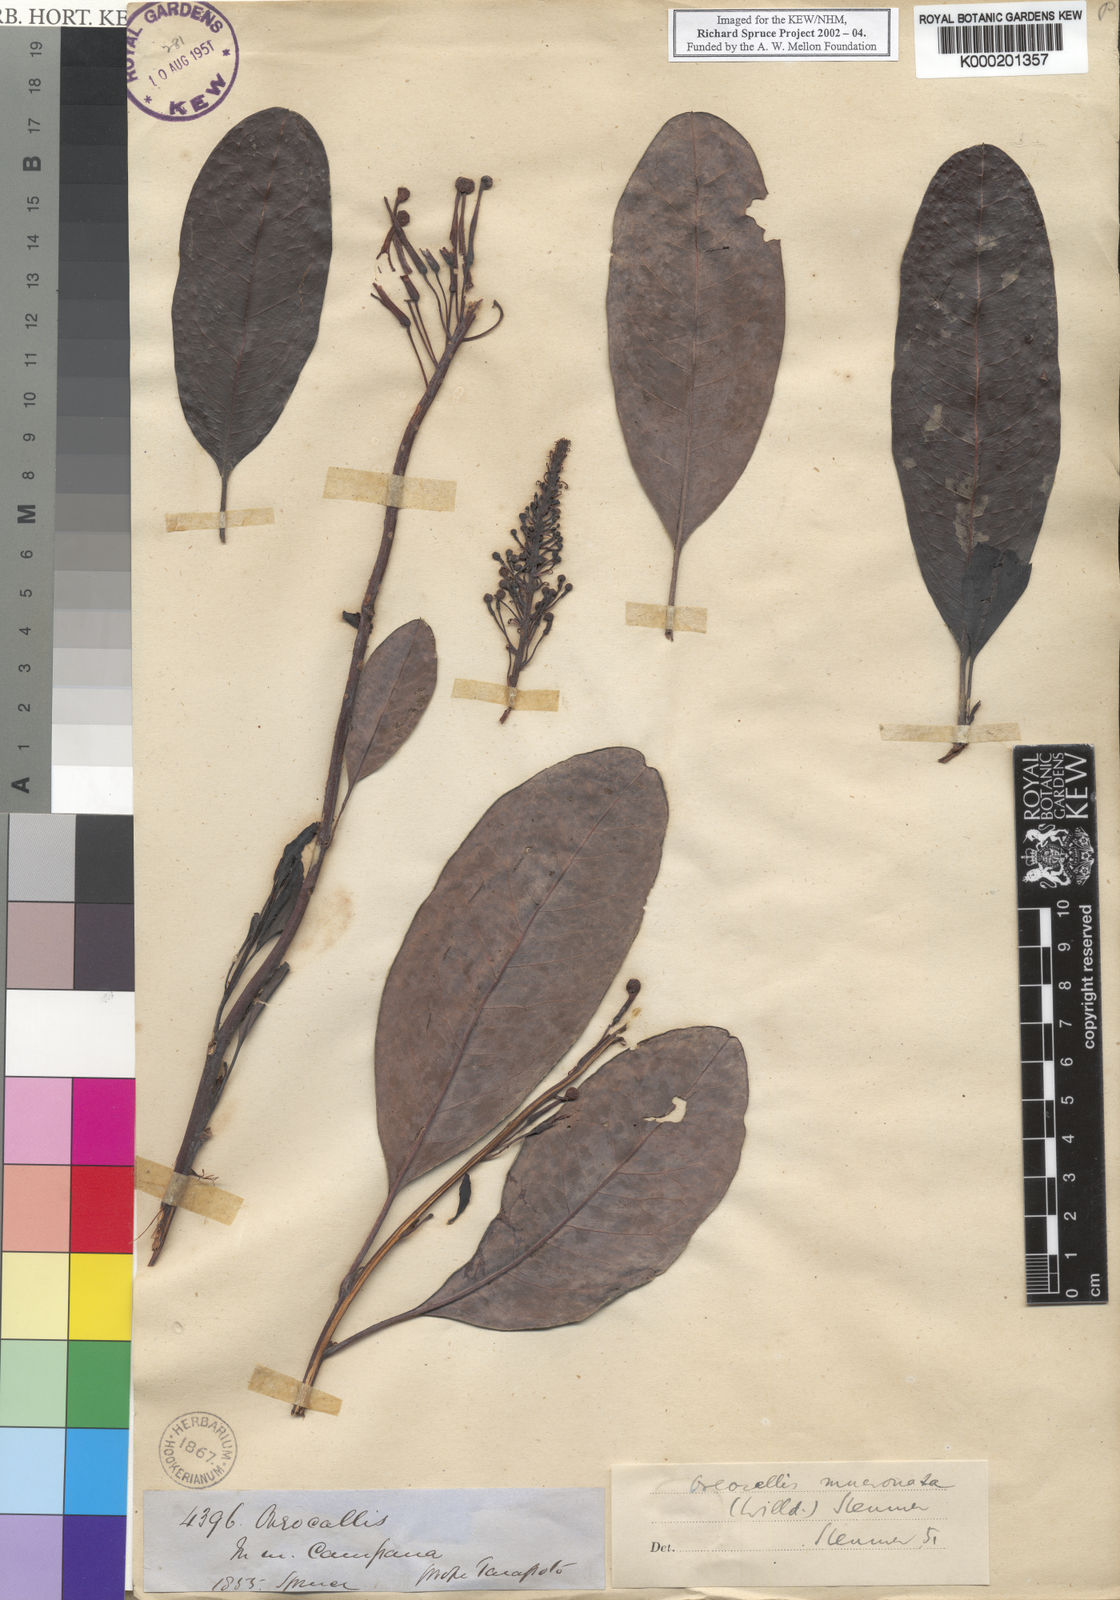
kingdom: Plantae
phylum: Tracheophyta
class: Magnoliopsida
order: Proteales
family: Proteaceae
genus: Oreocallis
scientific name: Oreocallis grandiflora
